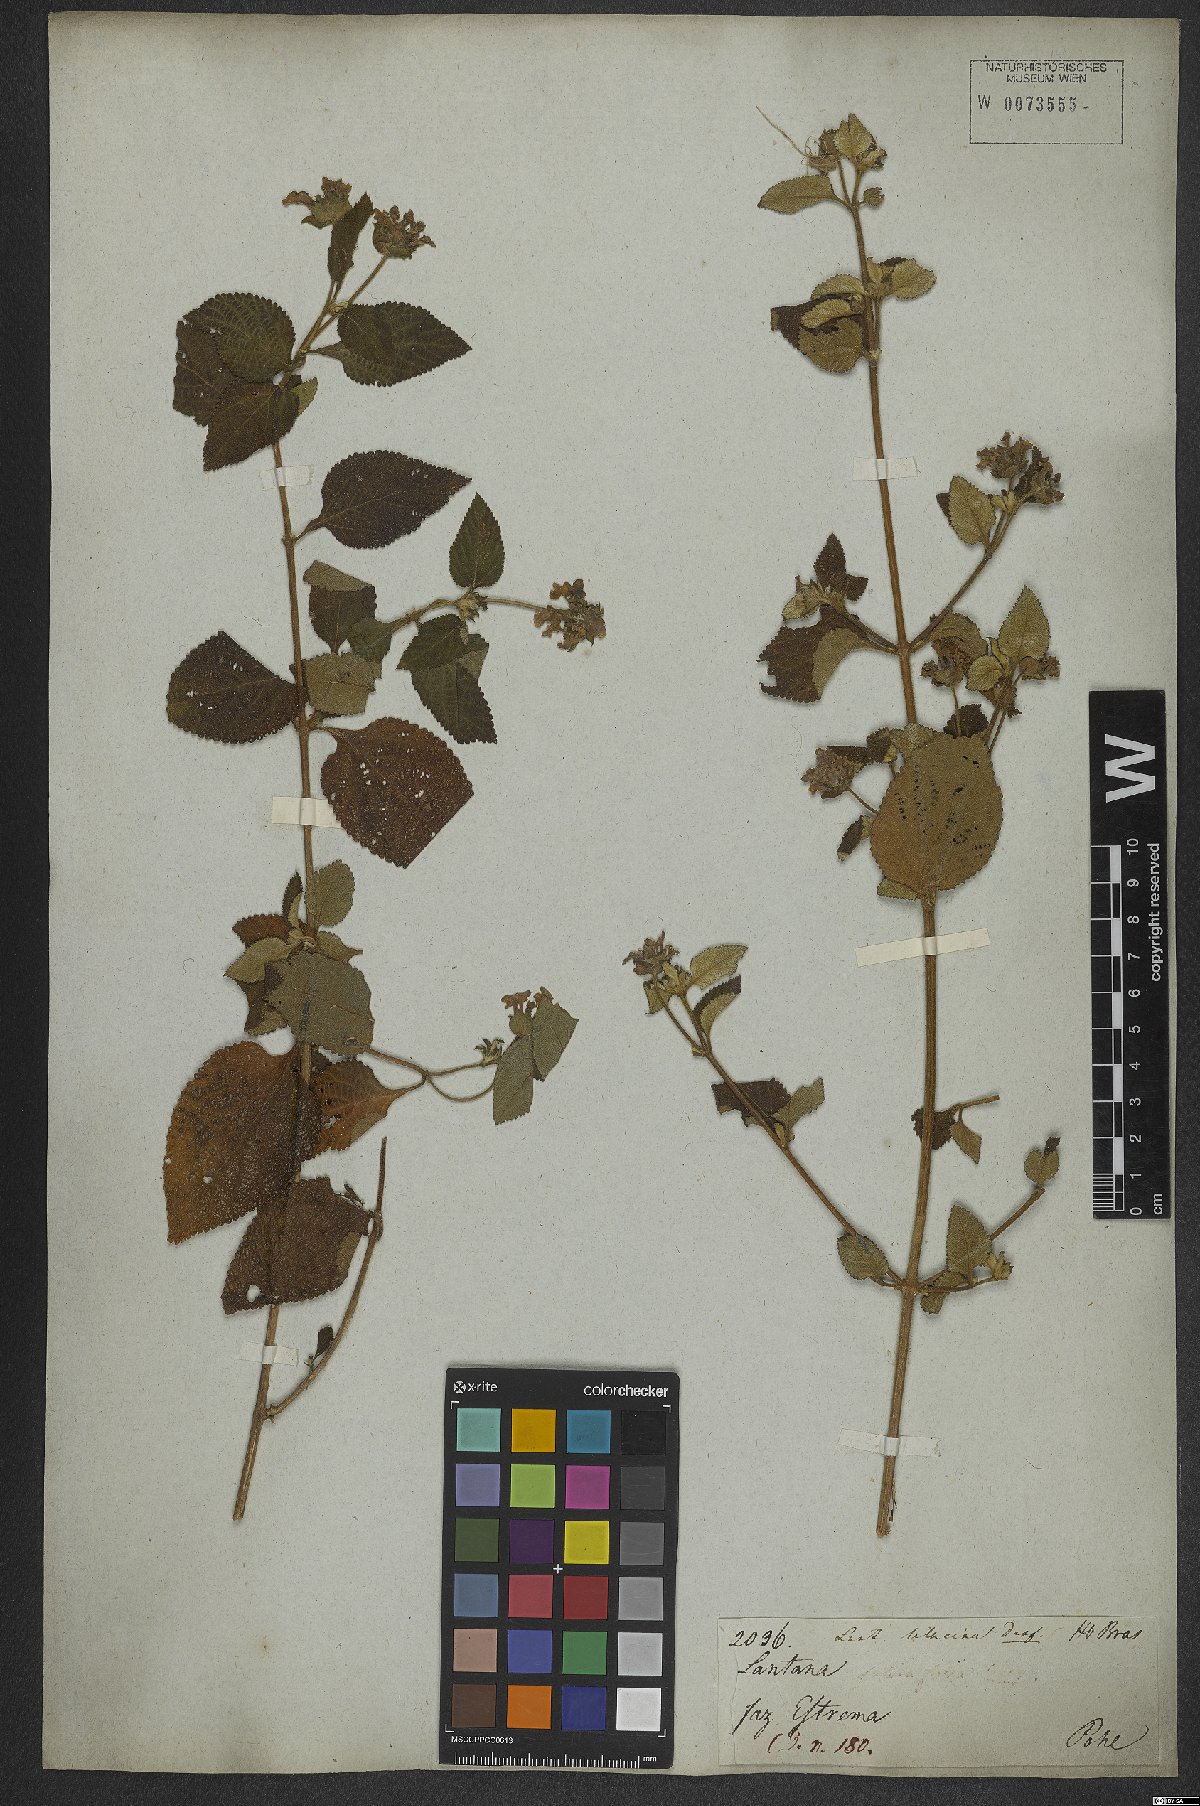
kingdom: Plantae
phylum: Tracheophyta
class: Magnoliopsida
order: Lamiales
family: Verbenaceae
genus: Lantana
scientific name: Lantana fucata
